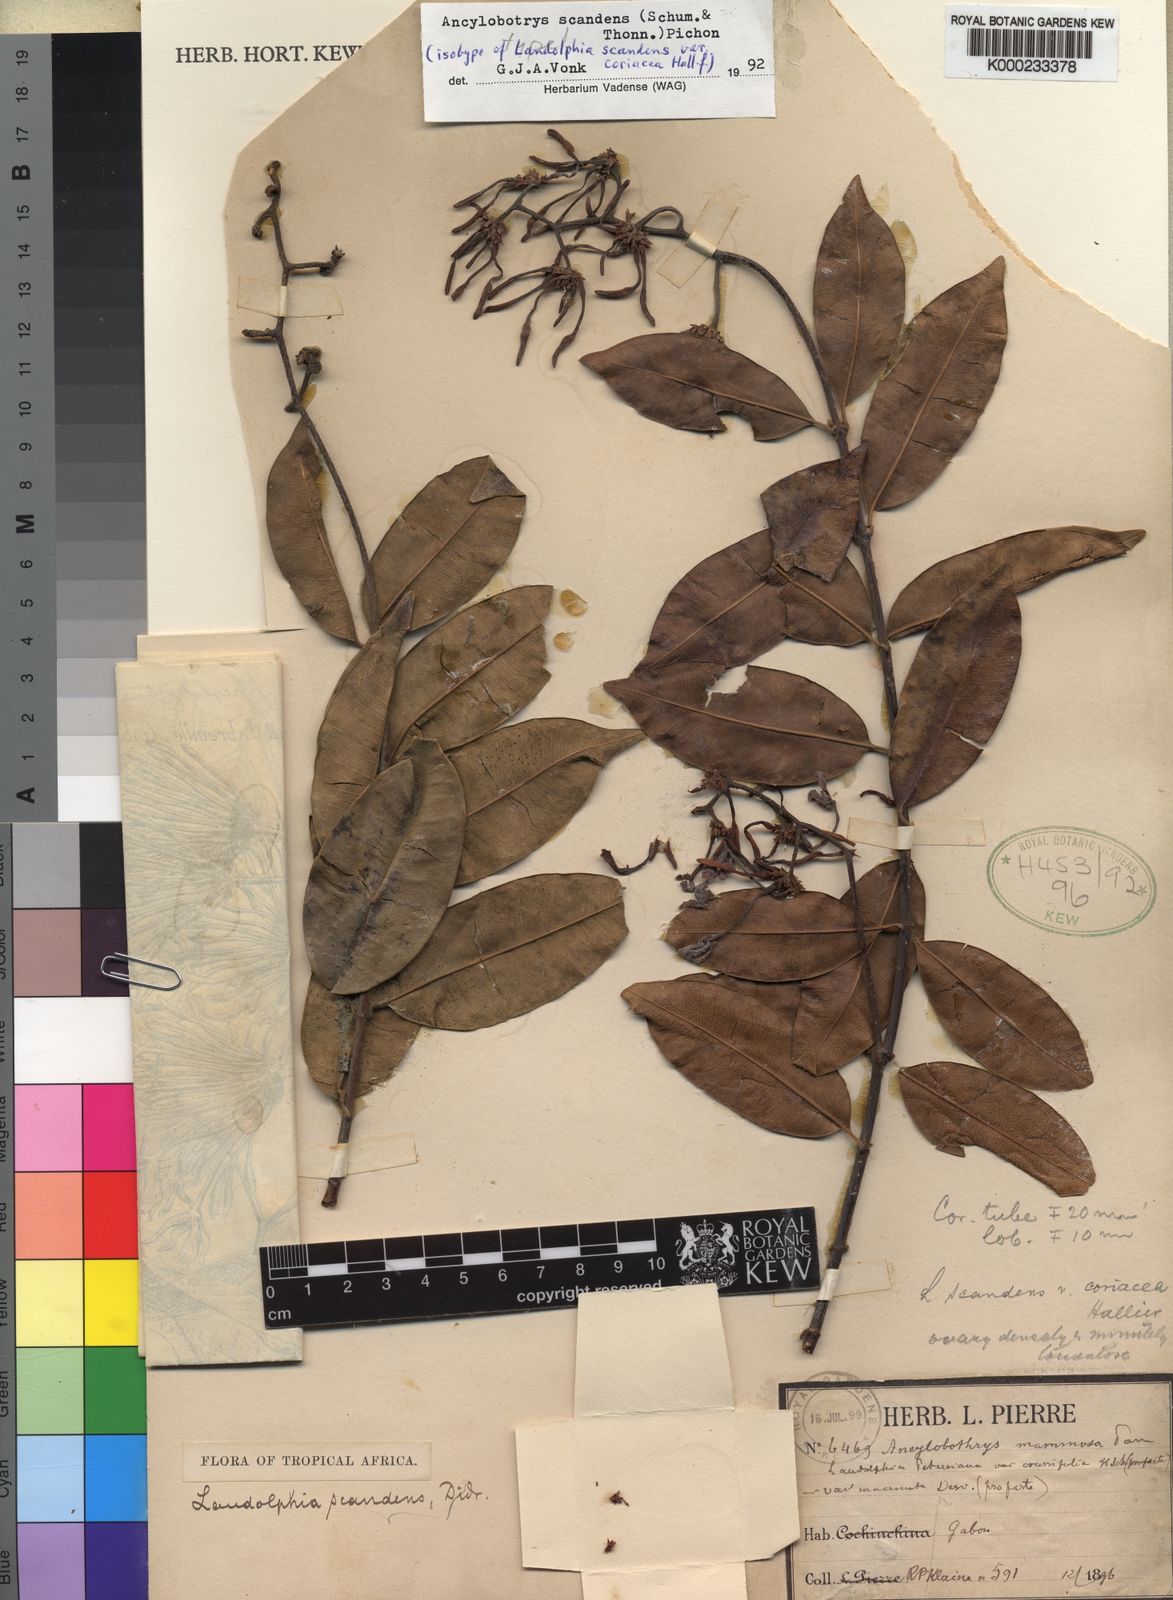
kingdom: Plantae
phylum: Tracheophyta
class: Magnoliopsida
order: Gentianales
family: Apocynaceae
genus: Ancylobothrys
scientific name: Ancylobothrys scandens
